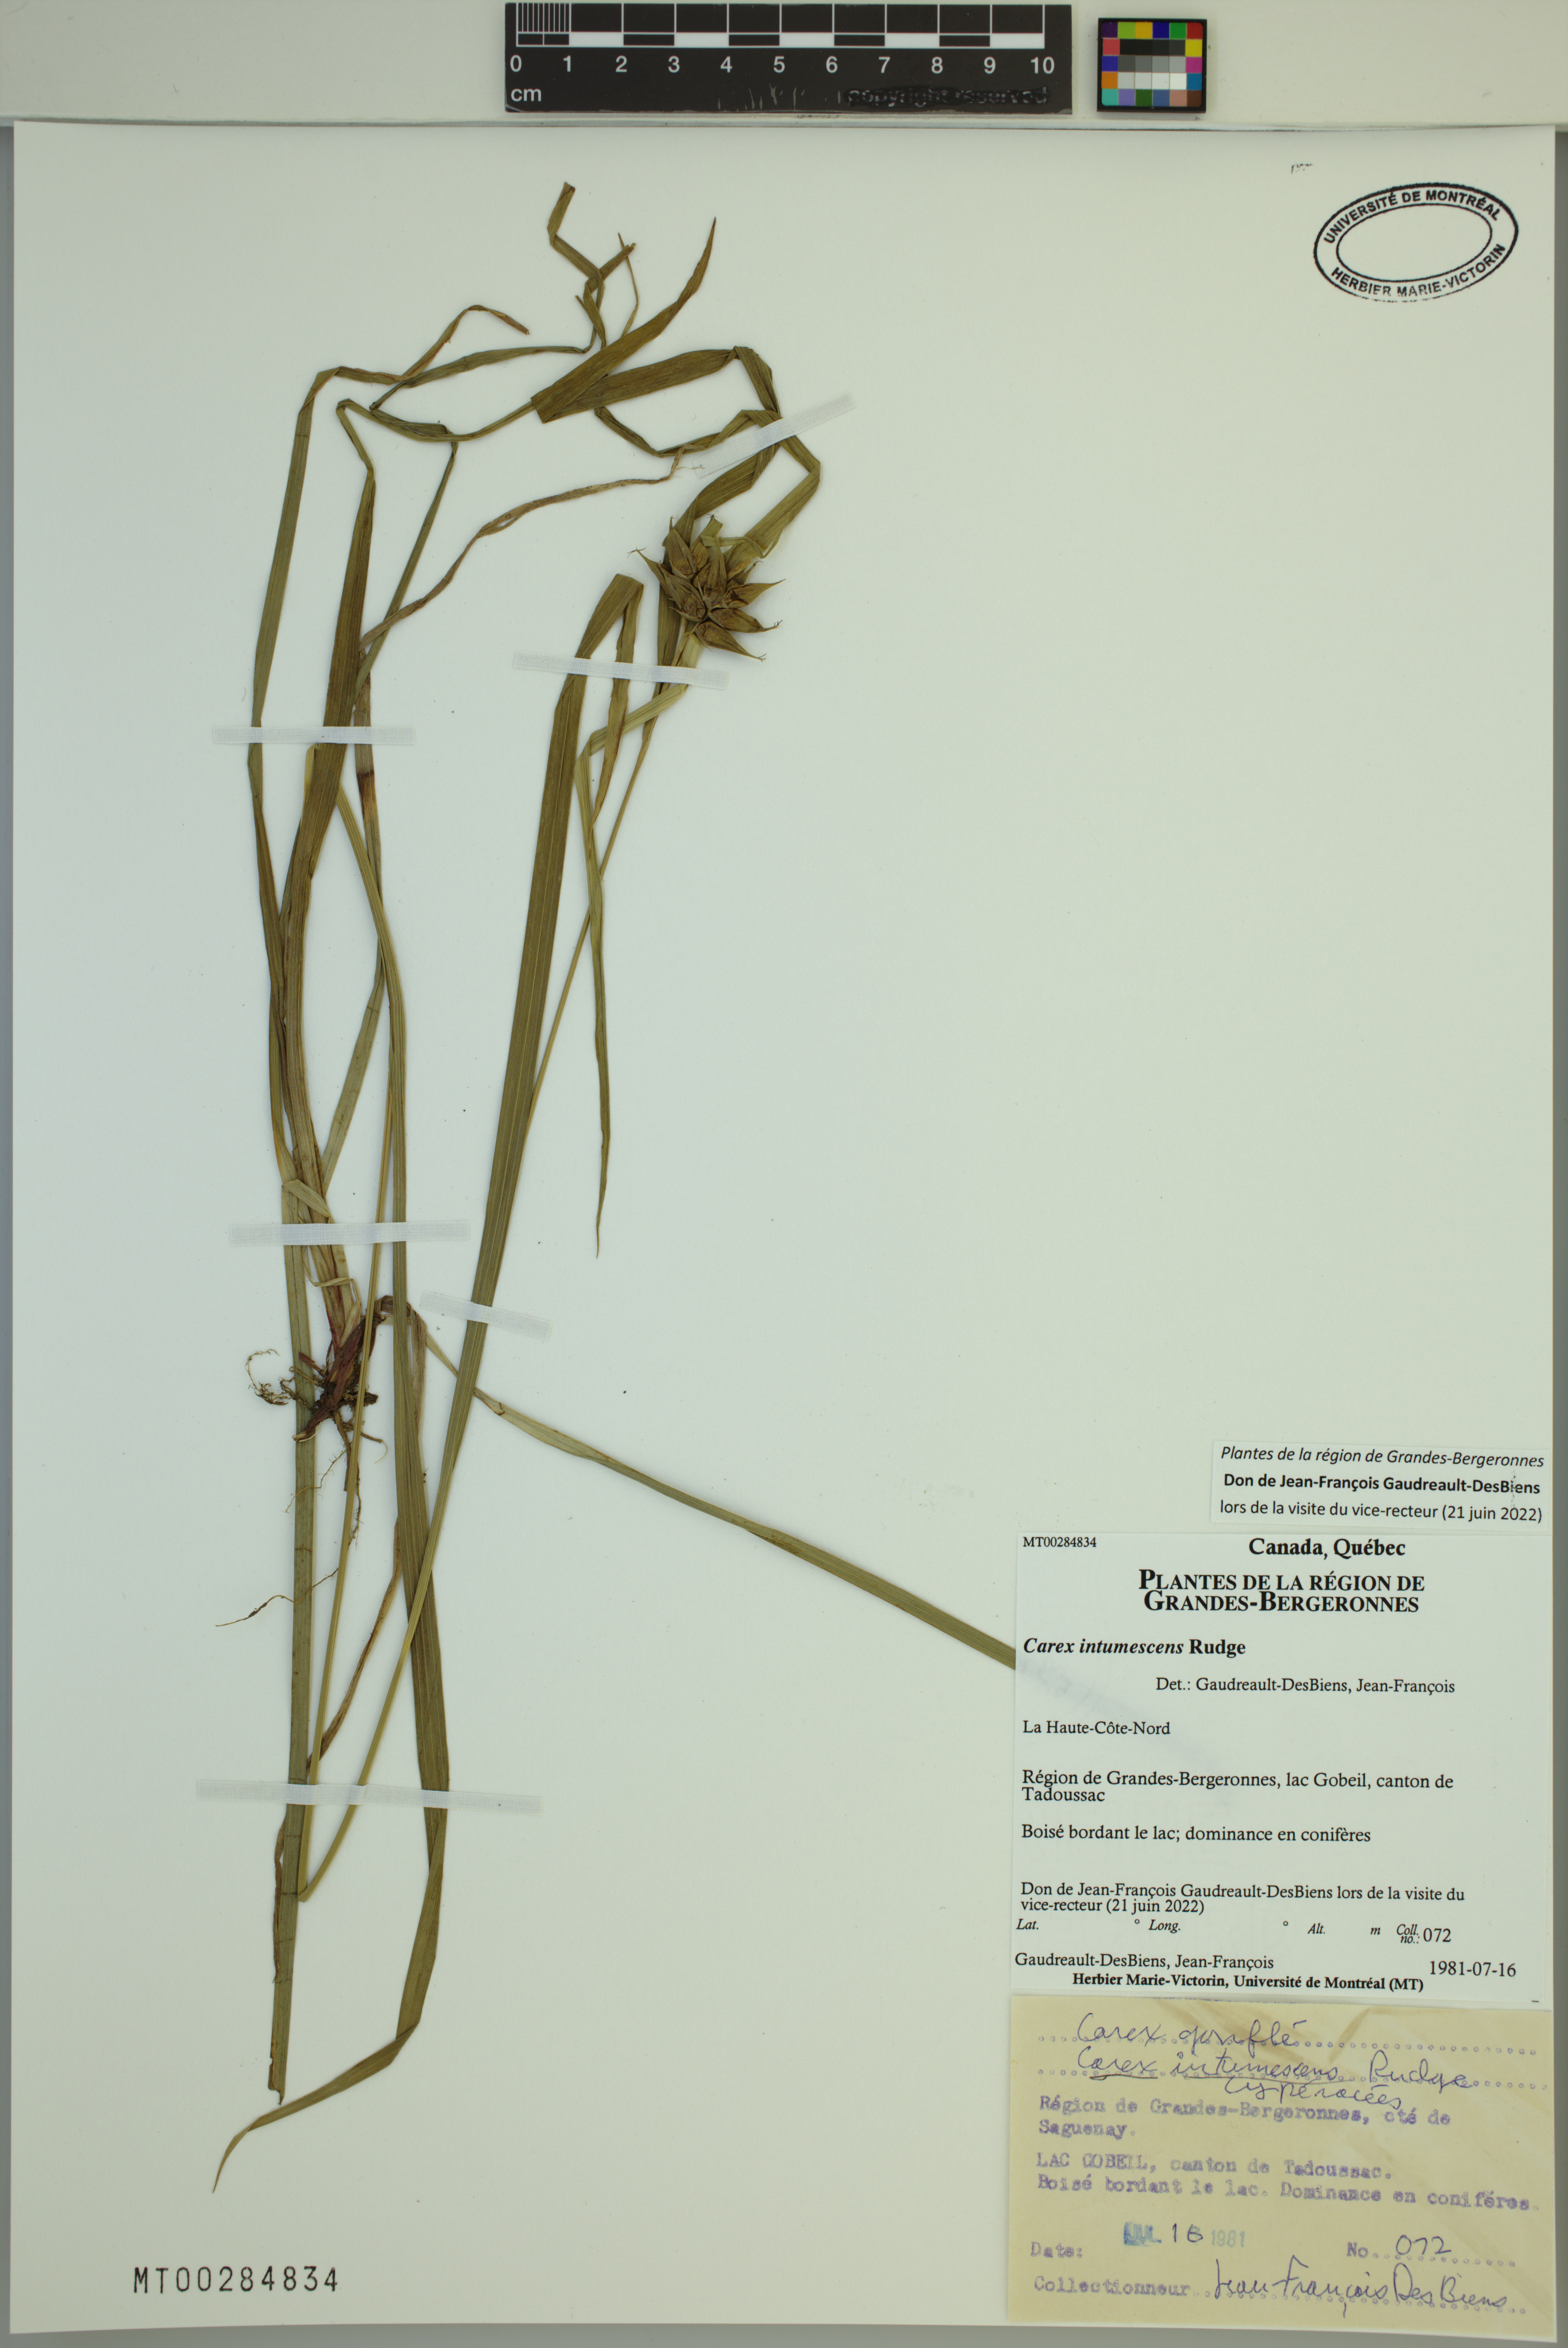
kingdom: Plantae
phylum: Tracheophyta
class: Liliopsida
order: Poales
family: Cyperaceae
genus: Carex
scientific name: Carex intumescens
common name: Greater bladder sedge
